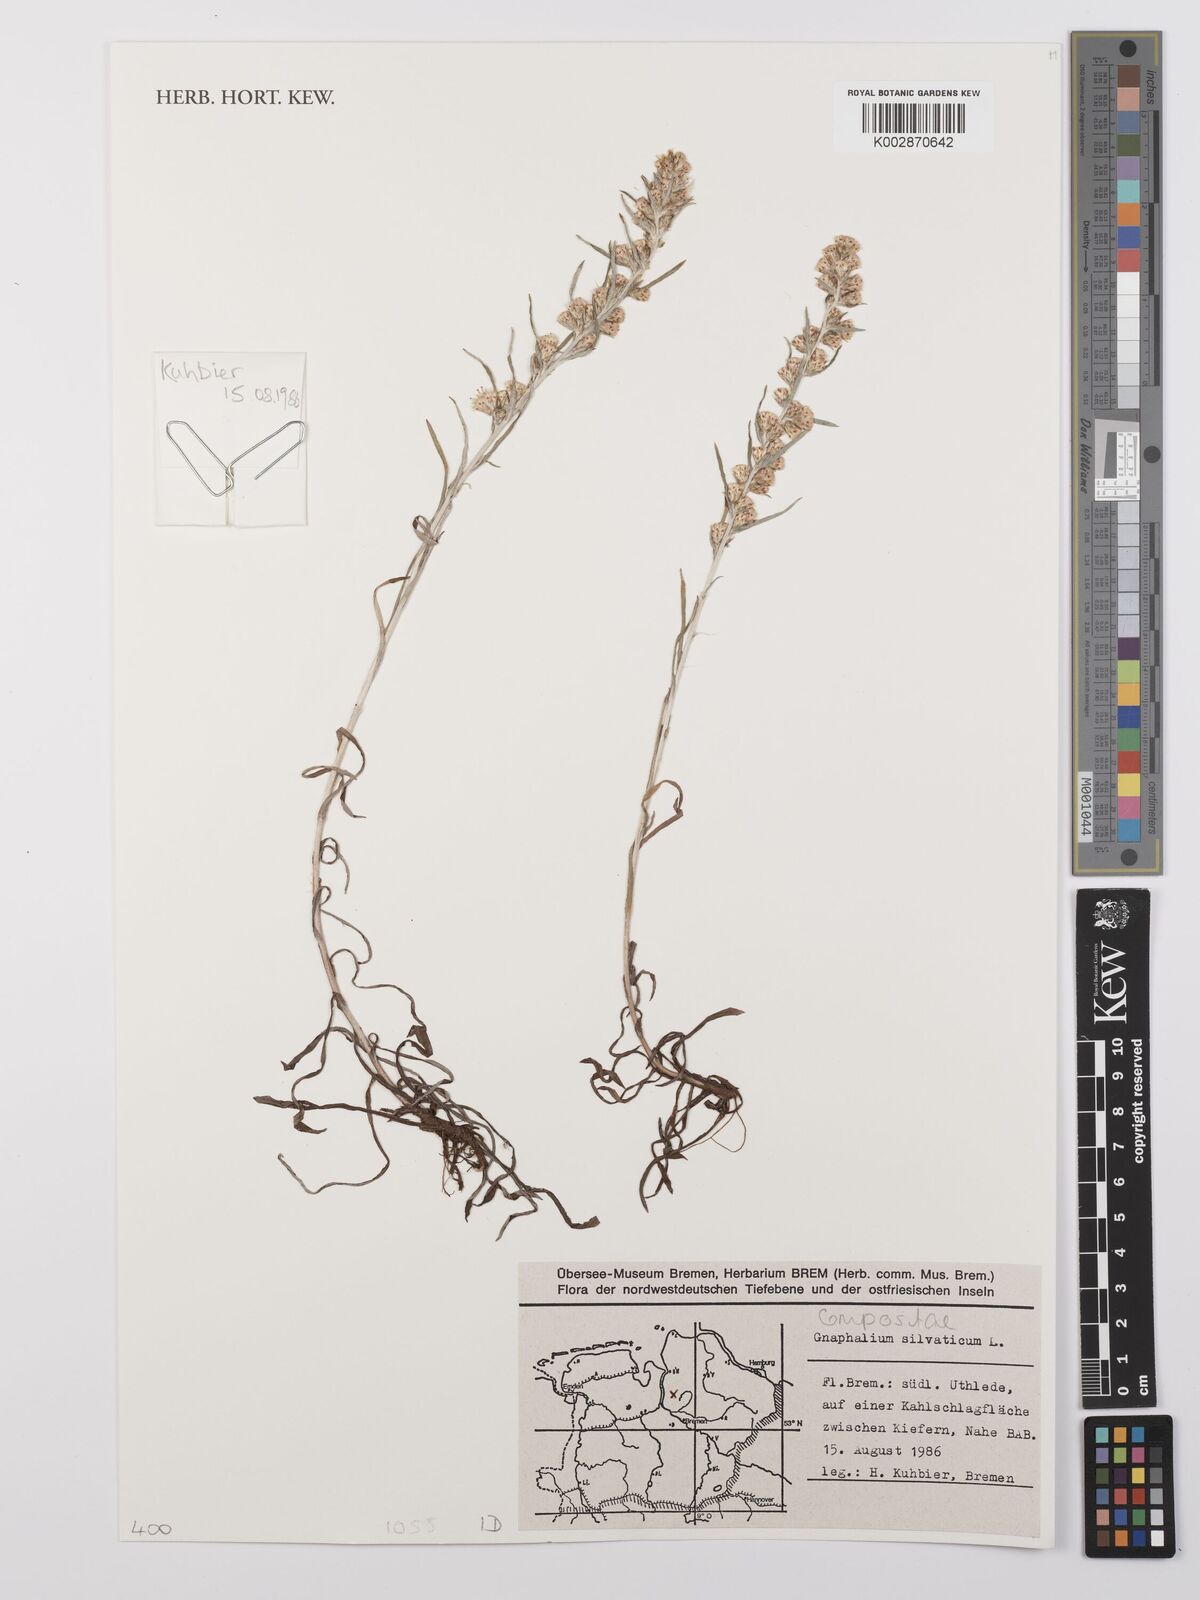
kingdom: Plantae
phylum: Tracheophyta
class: Magnoliopsida
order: Asterales
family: Asteraceae
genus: Omalotheca
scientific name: Omalotheca sylvatica
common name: Heath cudweed
